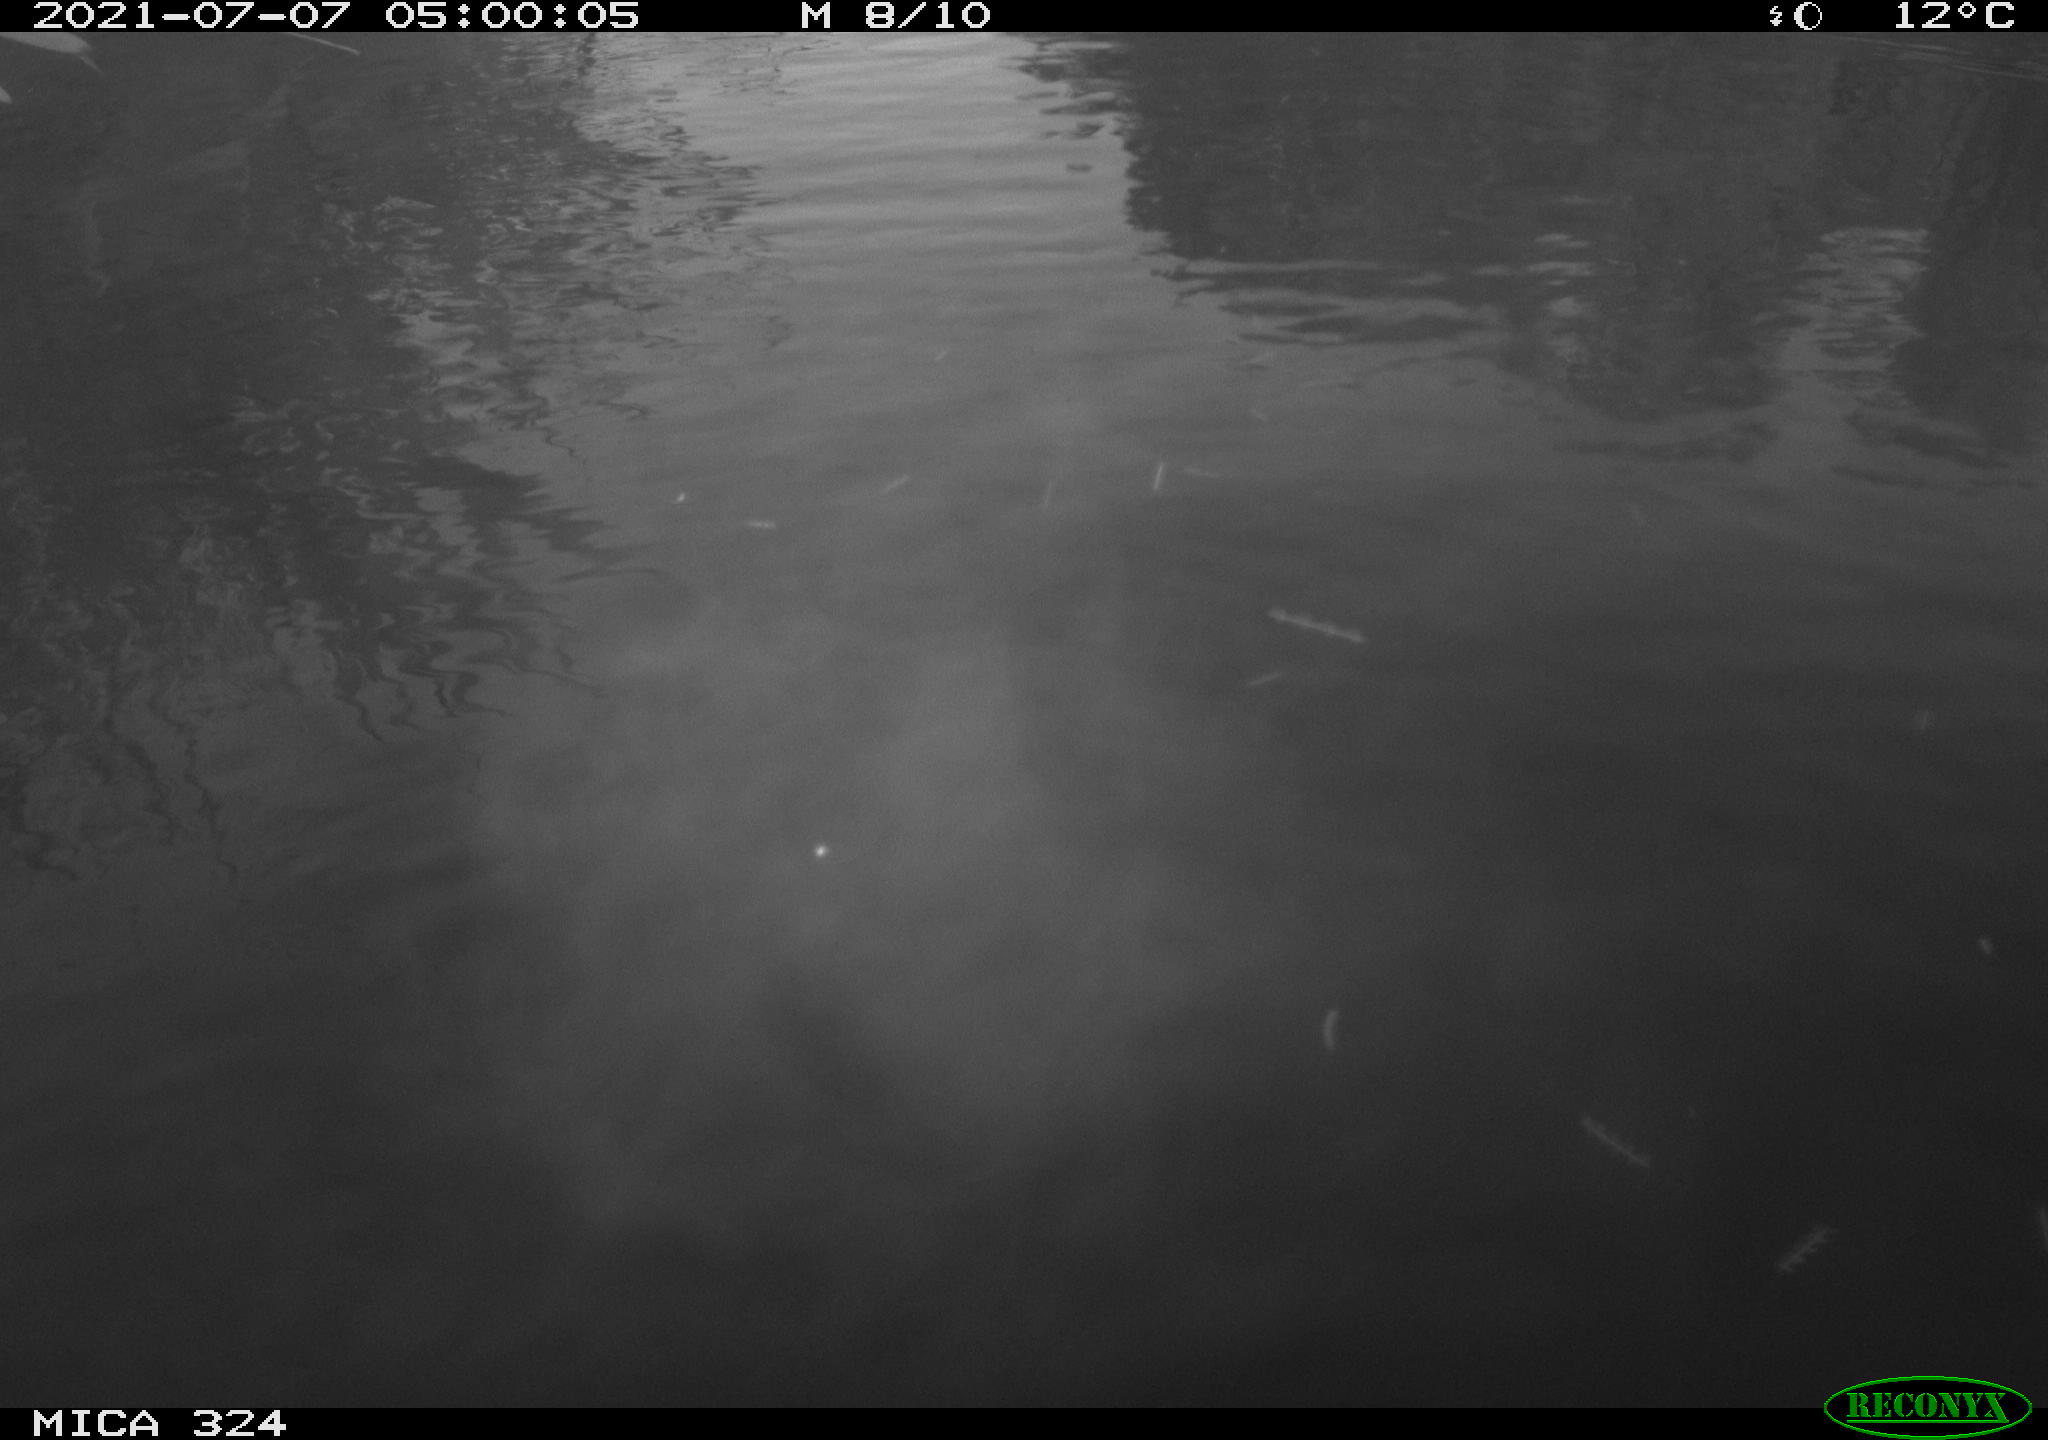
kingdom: Animalia
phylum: Chordata
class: Aves
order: Anseriformes
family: Anatidae
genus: Anser
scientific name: Anser anser
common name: Greylag goose
